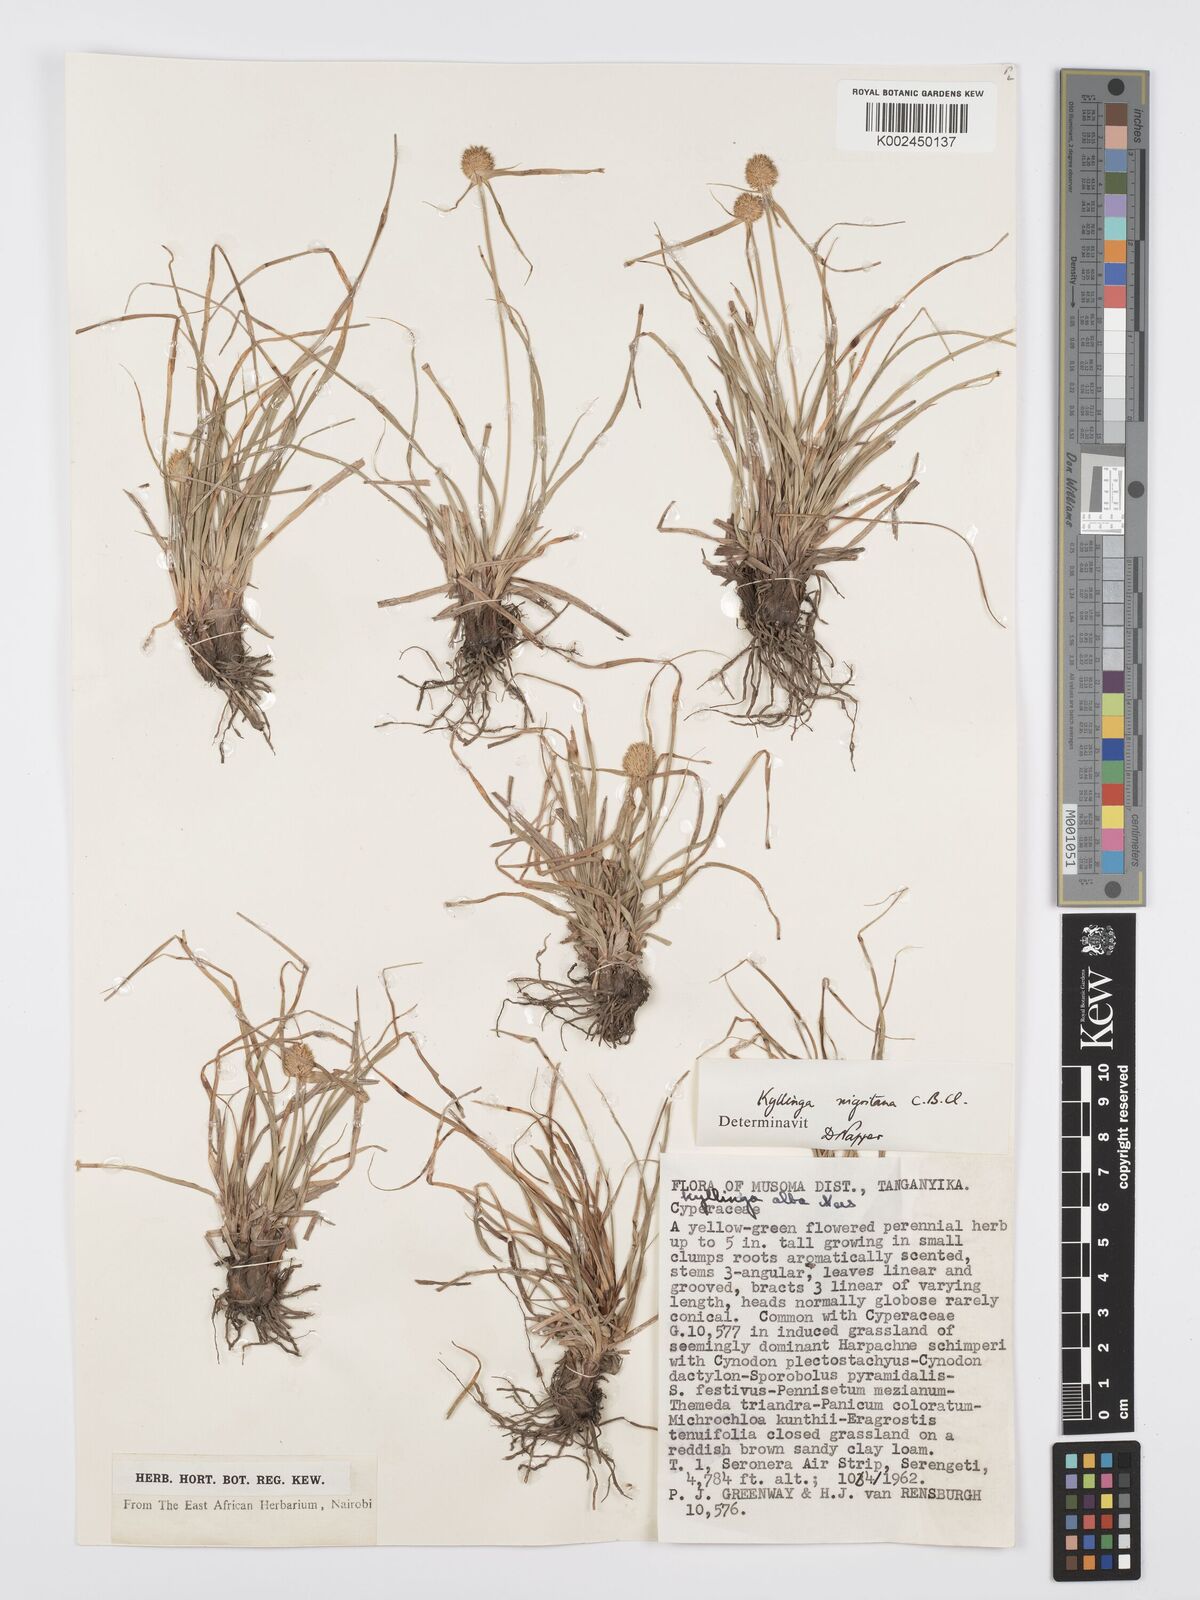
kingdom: Plantae
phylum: Tracheophyta
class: Liliopsida
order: Poales
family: Cyperaceae
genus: Cyperus
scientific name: Cyperus
